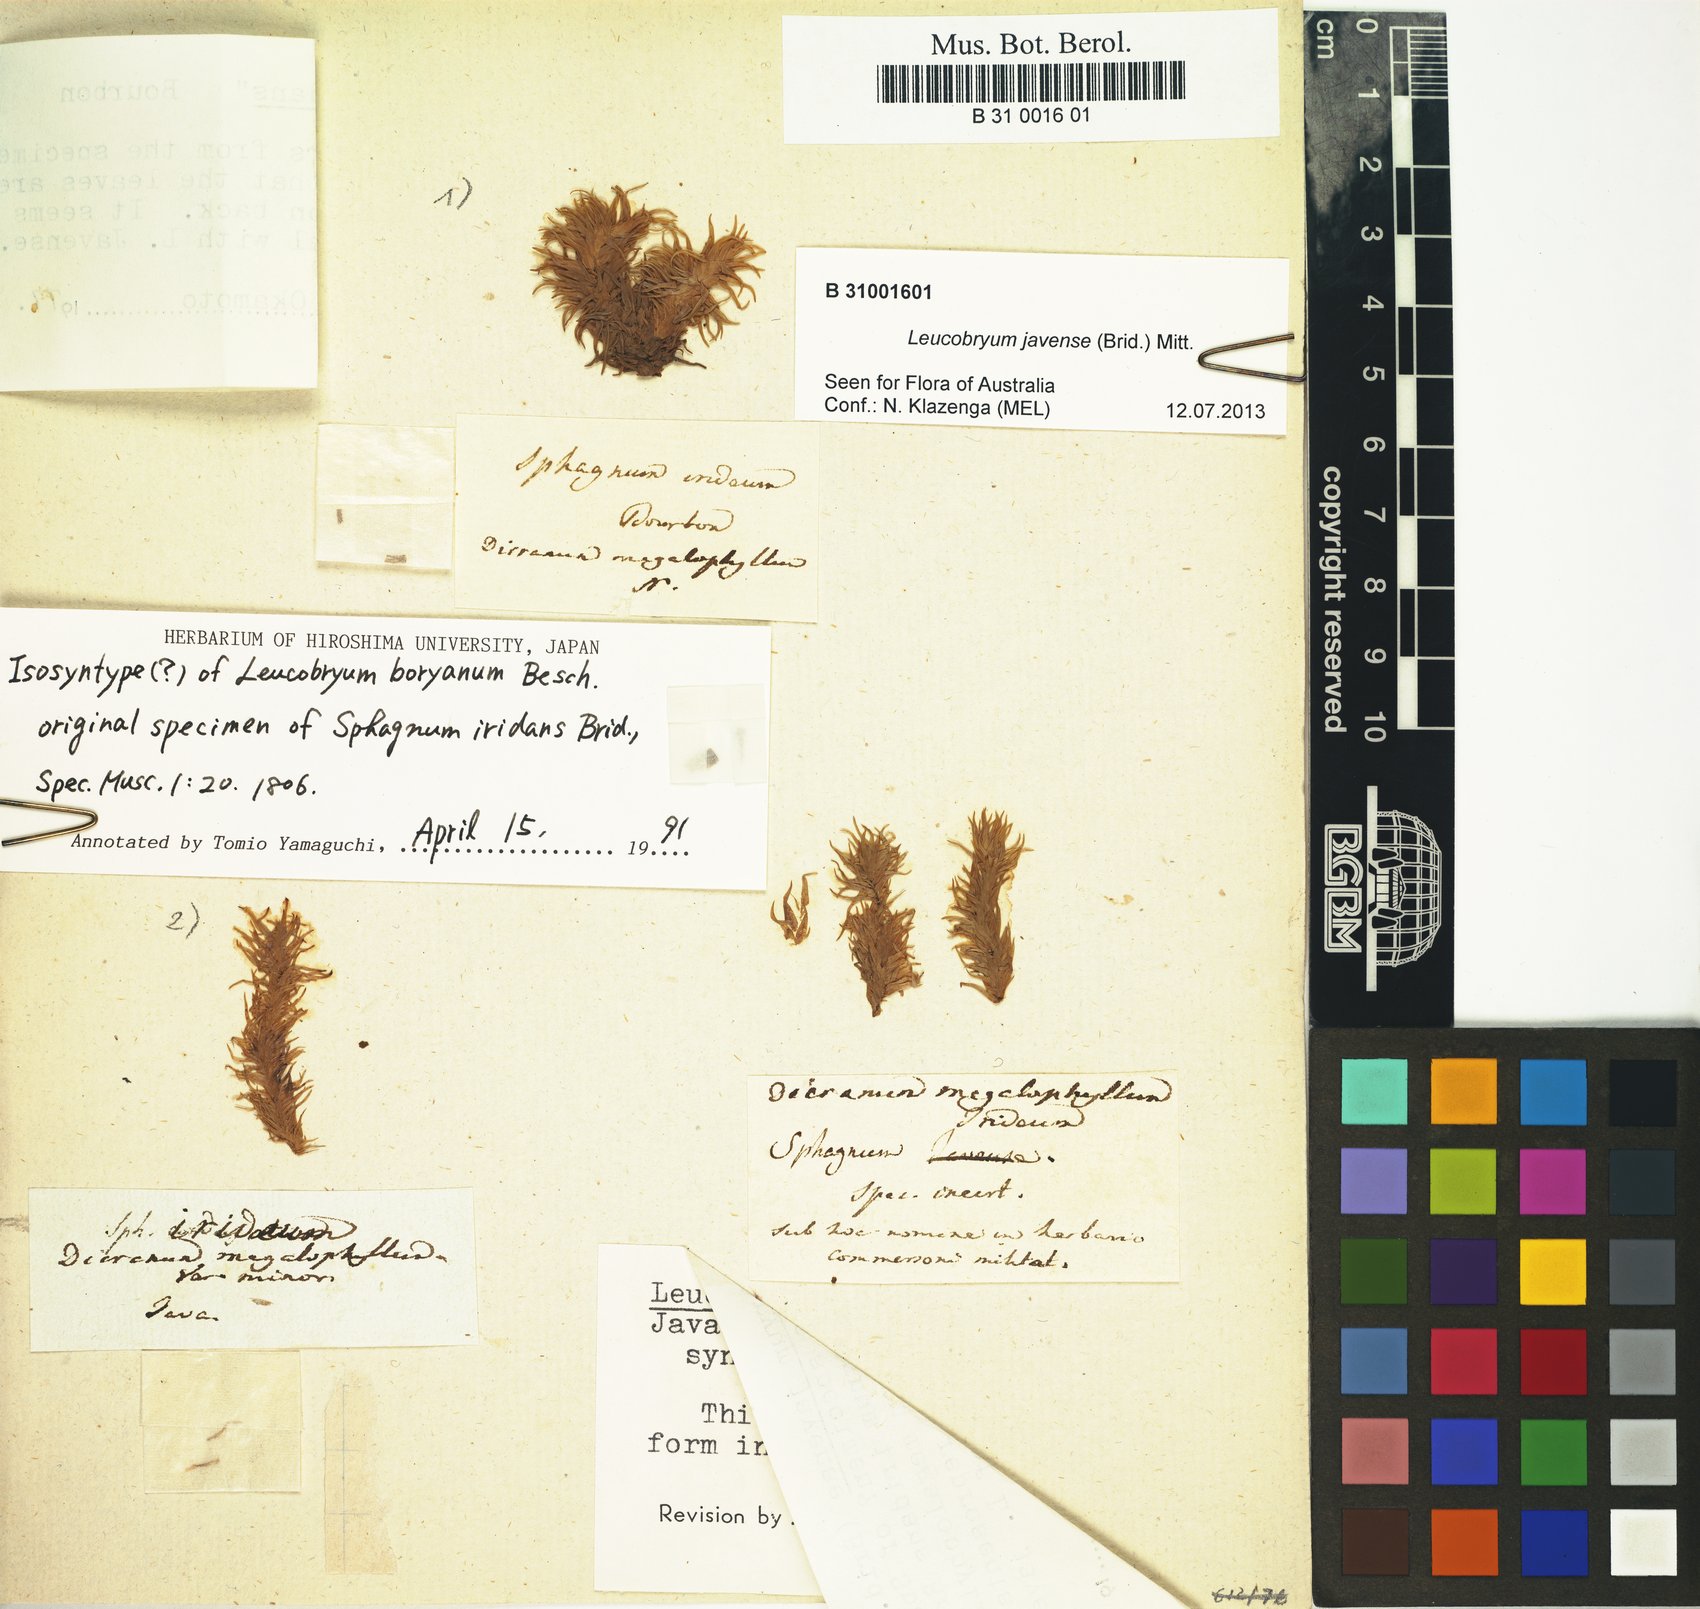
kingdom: Plantae
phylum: Bryophyta
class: Bryopsida
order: Dicranales
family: Leucobryaceae
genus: Leucobryum
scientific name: Leucobryum boryanum
